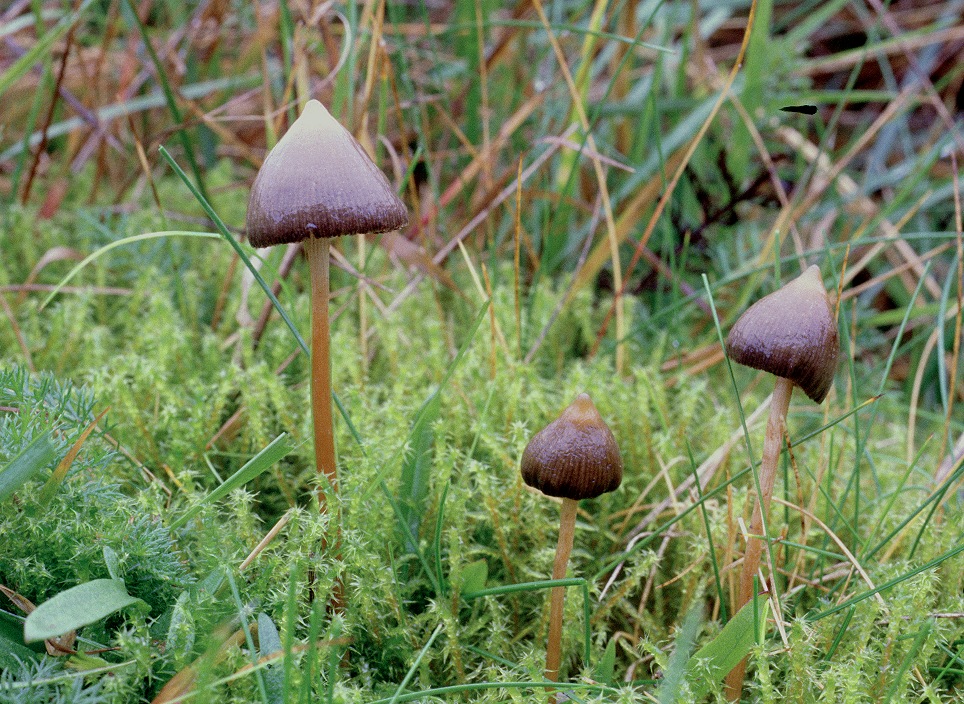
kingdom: Fungi
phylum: Basidiomycota
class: Agaricomycetes
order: Agaricales
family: Hymenogastraceae
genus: Psilocybe
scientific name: Psilocybe semilanceata
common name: spids nøgenhat
